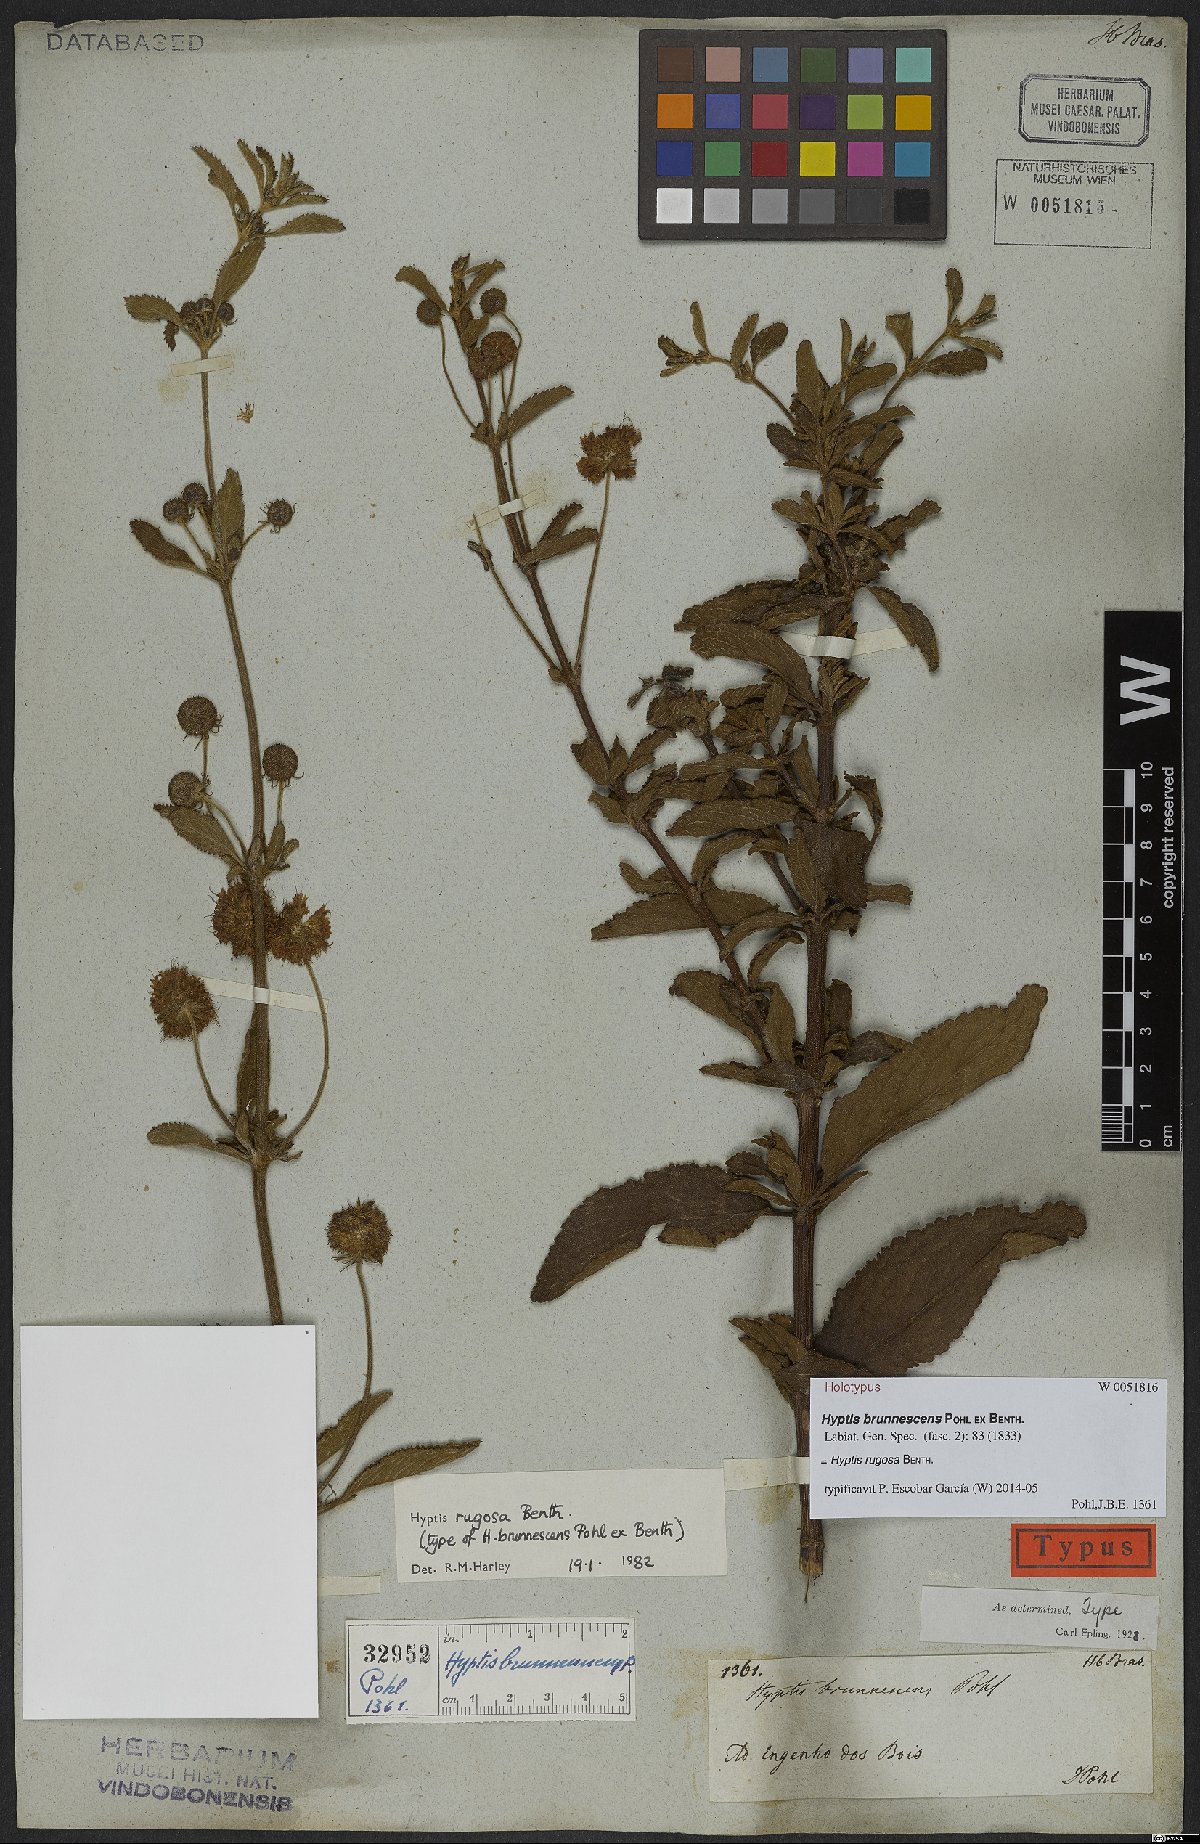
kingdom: Plantae
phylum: Tracheophyta
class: Magnoliopsida
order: Lamiales
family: Lamiaceae
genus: Cyanocephalus
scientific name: Cyanocephalus rugosus
